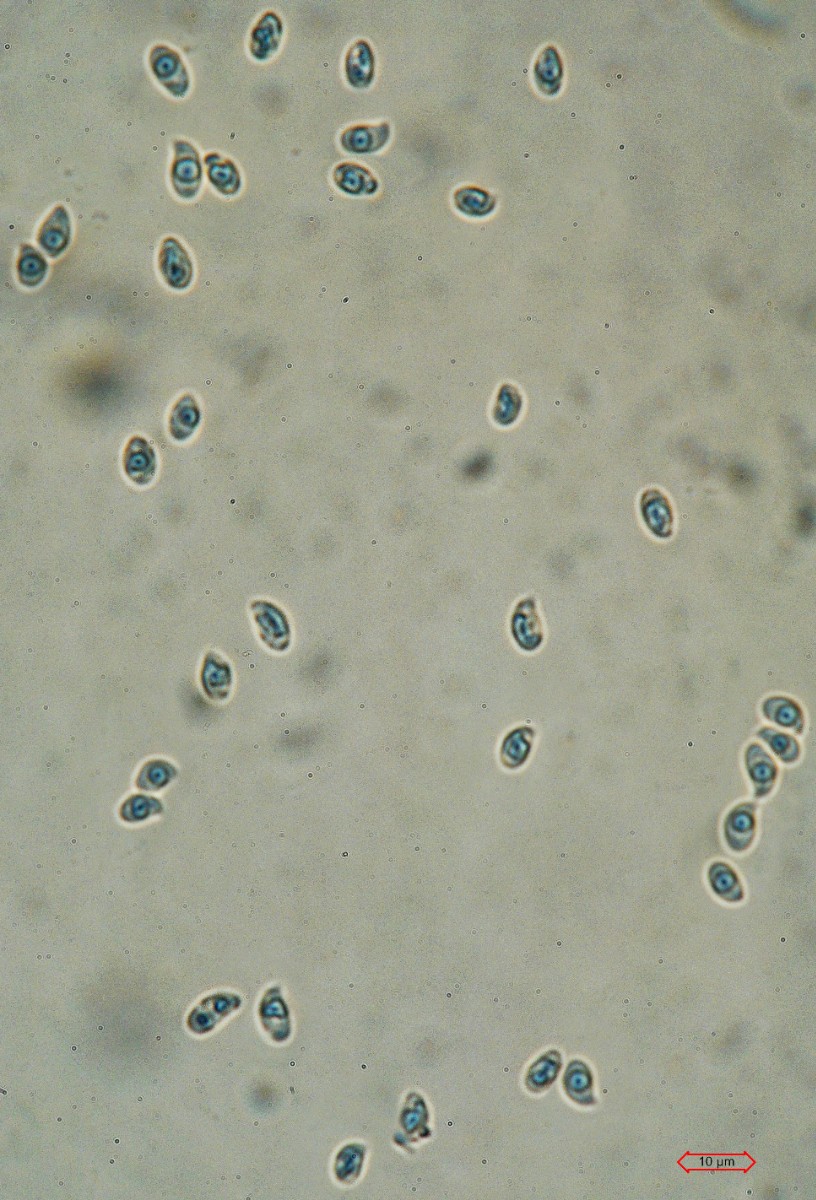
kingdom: Fungi
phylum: Basidiomycota
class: Agaricomycetes
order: Agaricales
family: Omphalotaceae
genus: Gymnopus
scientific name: Gymnopus
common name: fladhat
